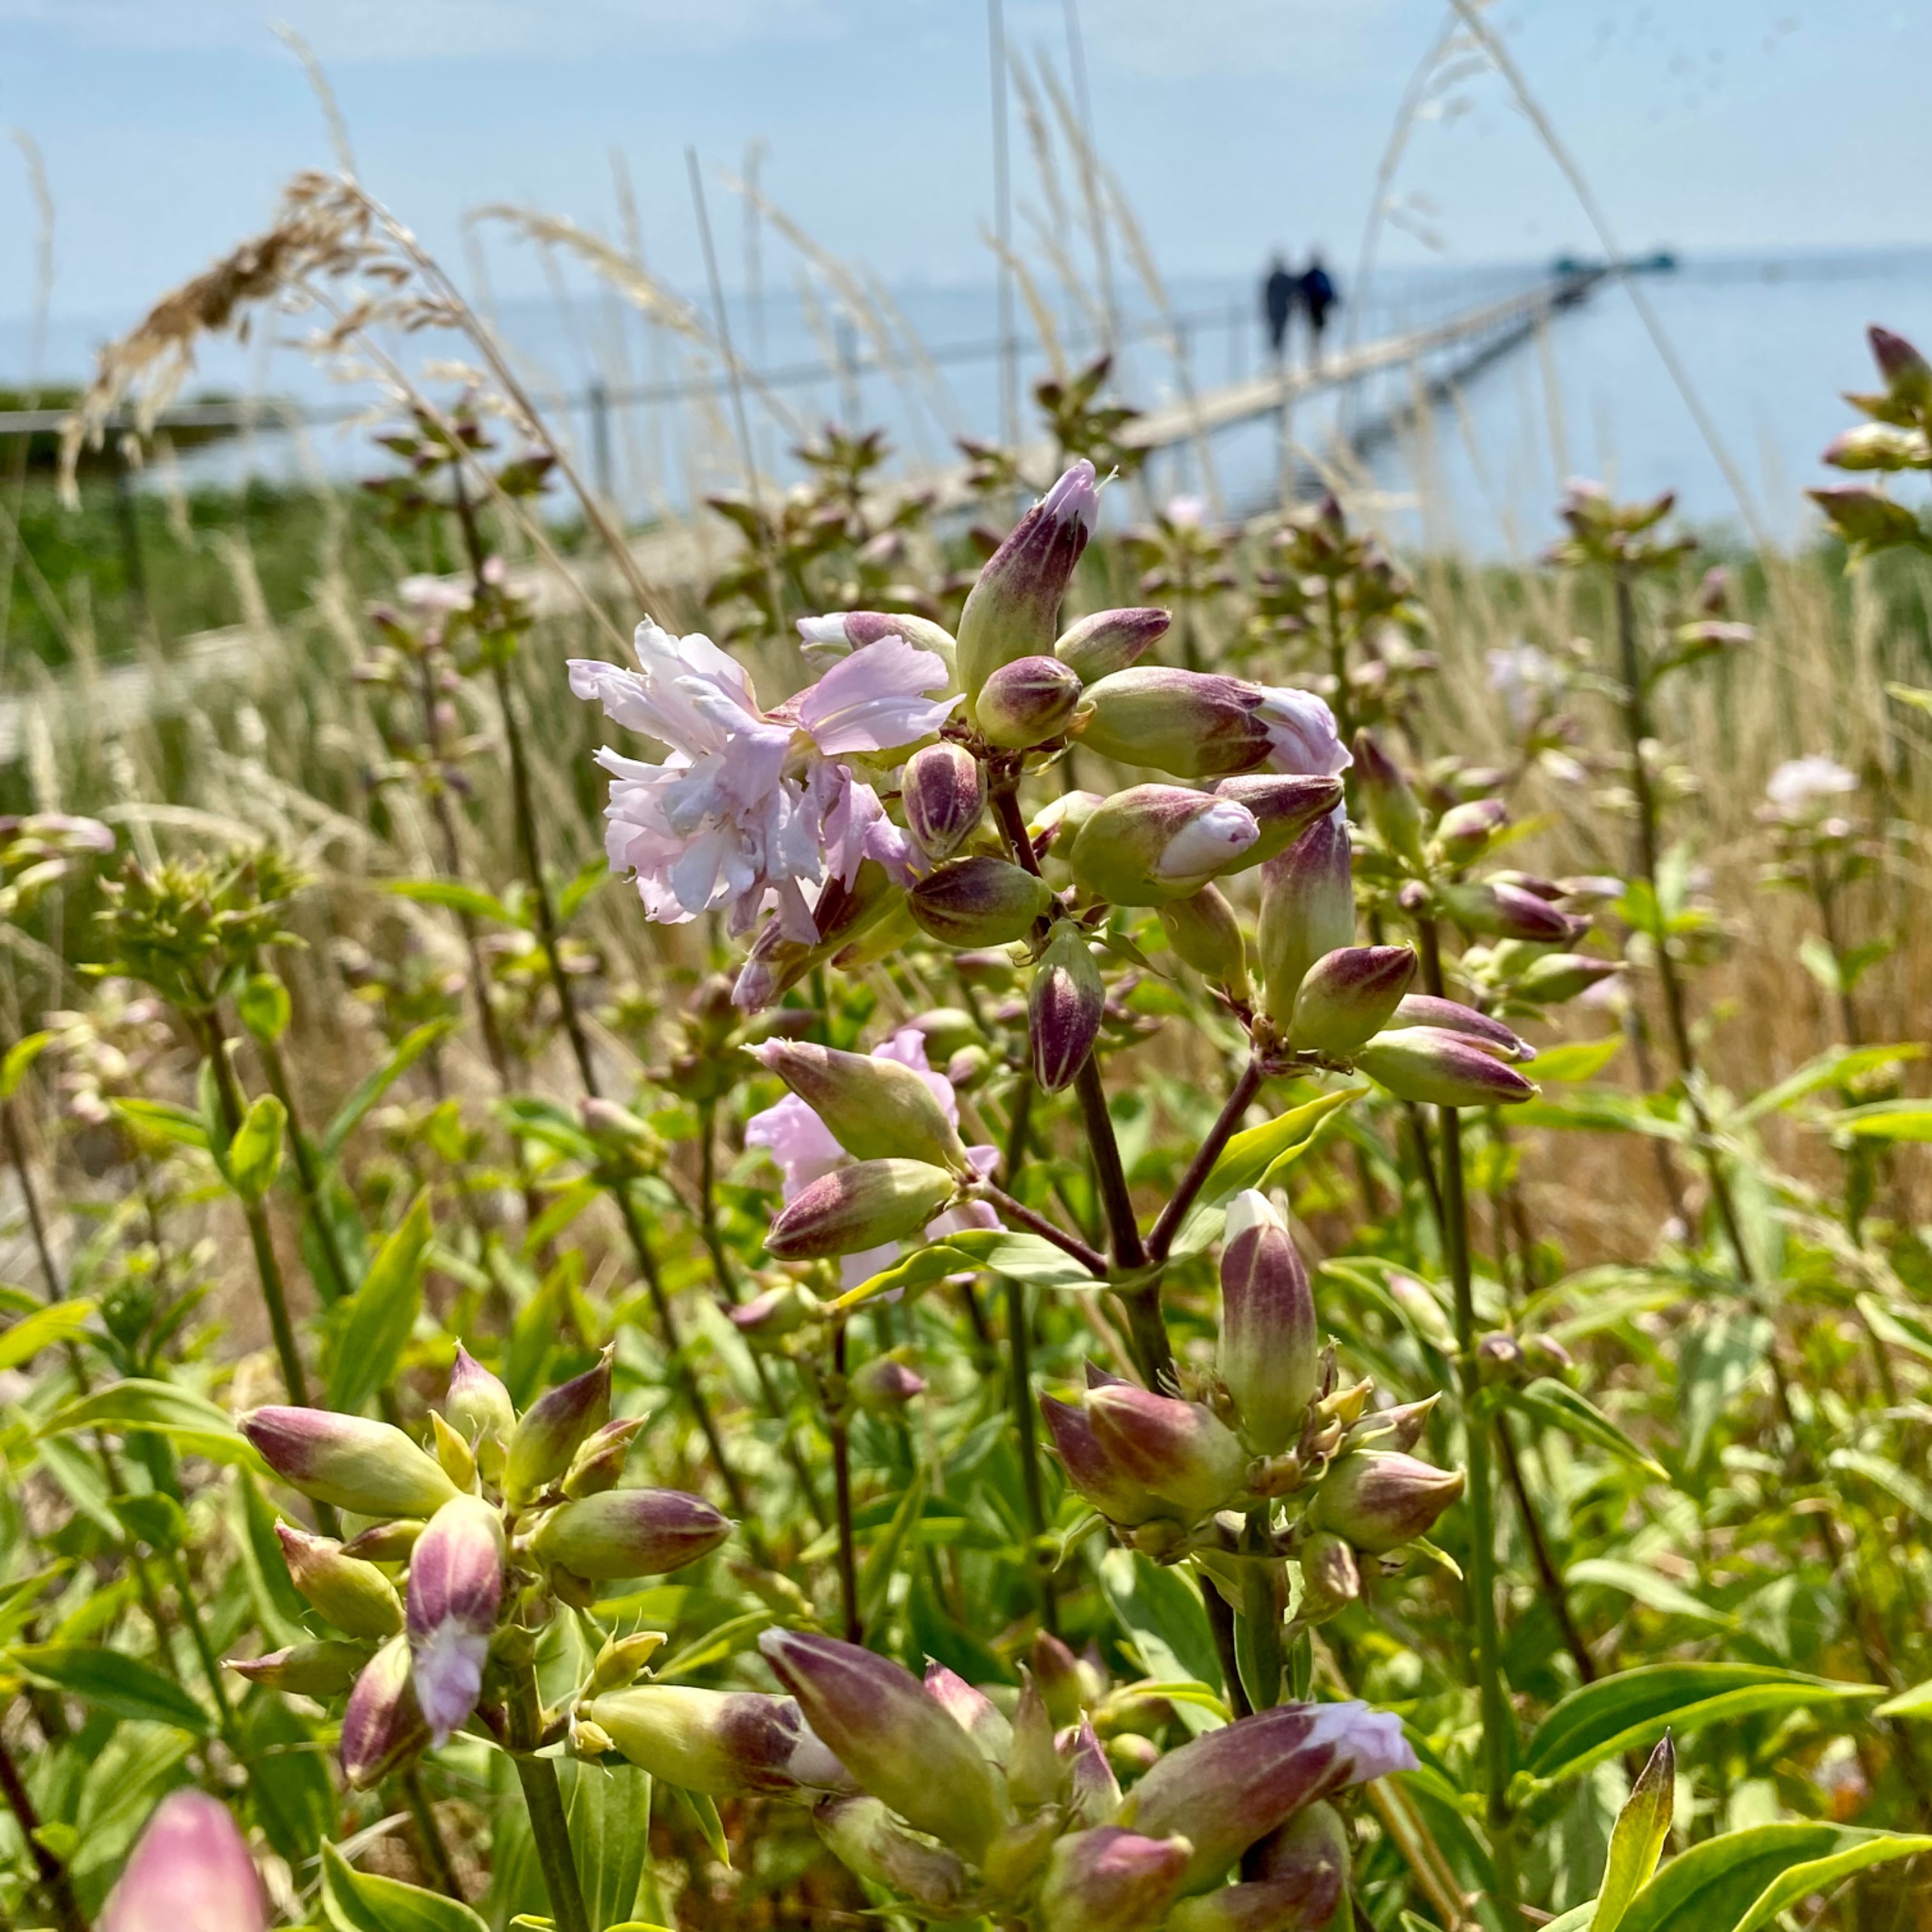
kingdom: Plantae
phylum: Tracheophyta
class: Magnoliopsida
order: Caryophyllales
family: Caryophyllaceae
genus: Saponaria
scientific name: Saponaria officinalis
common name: Sæbeurt
